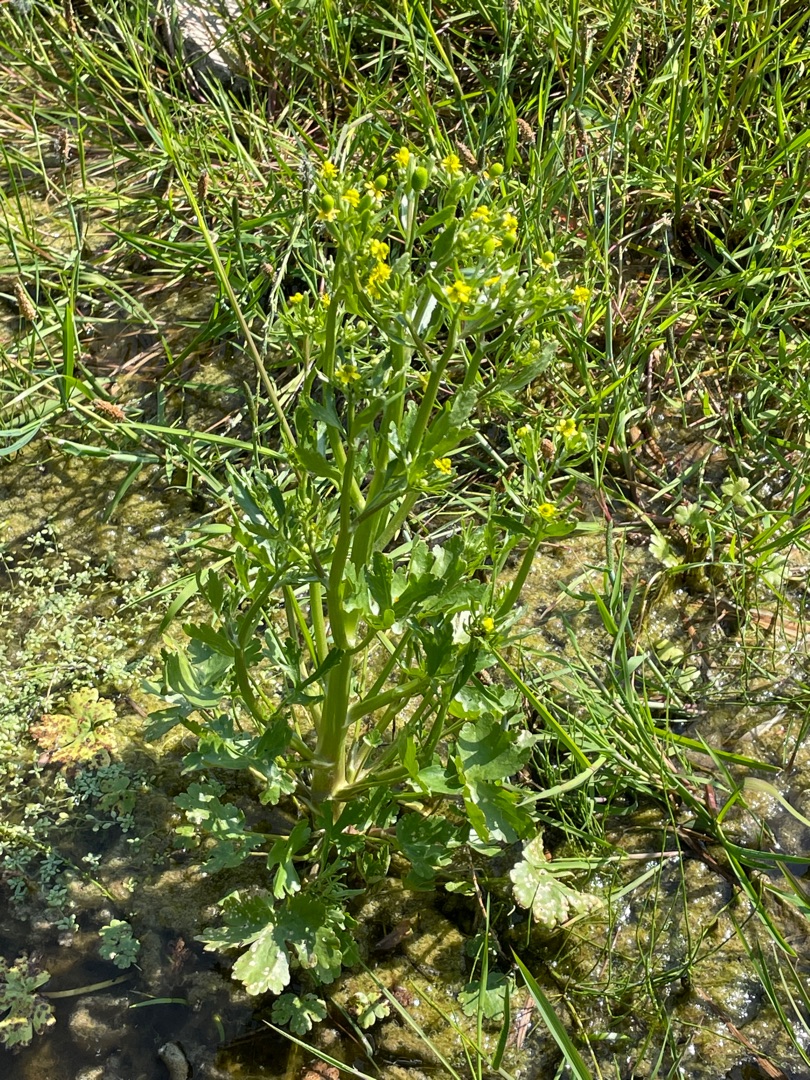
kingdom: Plantae
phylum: Tracheophyta
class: Magnoliopsida
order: Ranunculales
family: Ranunculaceae
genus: Ranunculus
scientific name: Ranunculus sceleratus
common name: Tigger-ranunkel
